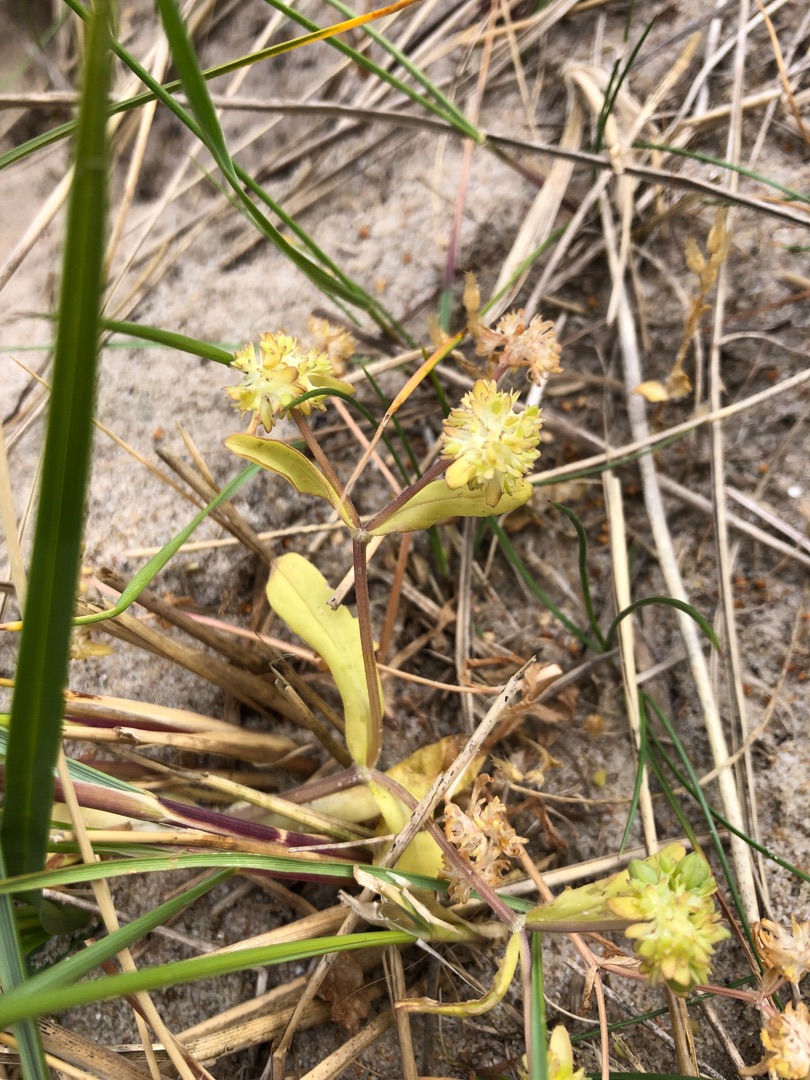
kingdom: Plantae
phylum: Tracheophyta
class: Magnoliopsida
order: Dipsacales
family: Caprifoliaceae
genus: Valerianella
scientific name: Valerianella locusta
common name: Tandfri vårsalat
